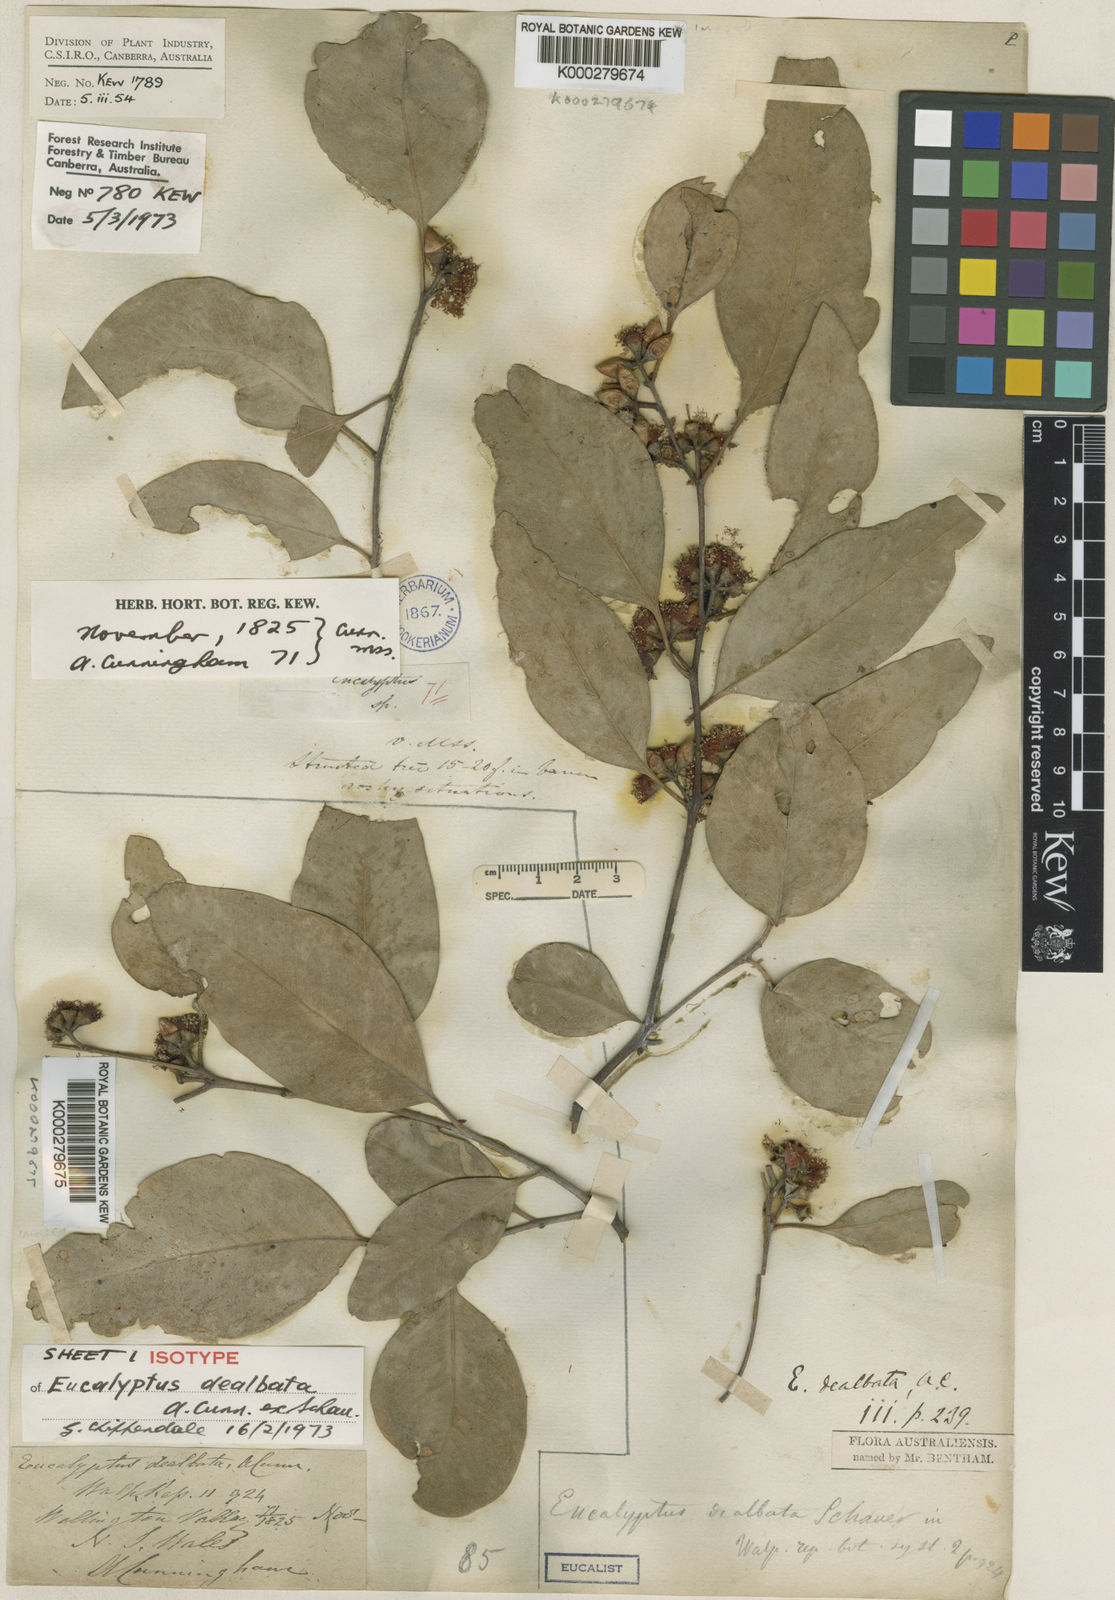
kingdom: Plantae
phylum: Tracheophyta
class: Magnoliopsida
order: Myrtales
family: Myrtaceae
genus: Eucalyptus
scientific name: Eucalyptus dealbata
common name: Red gum
